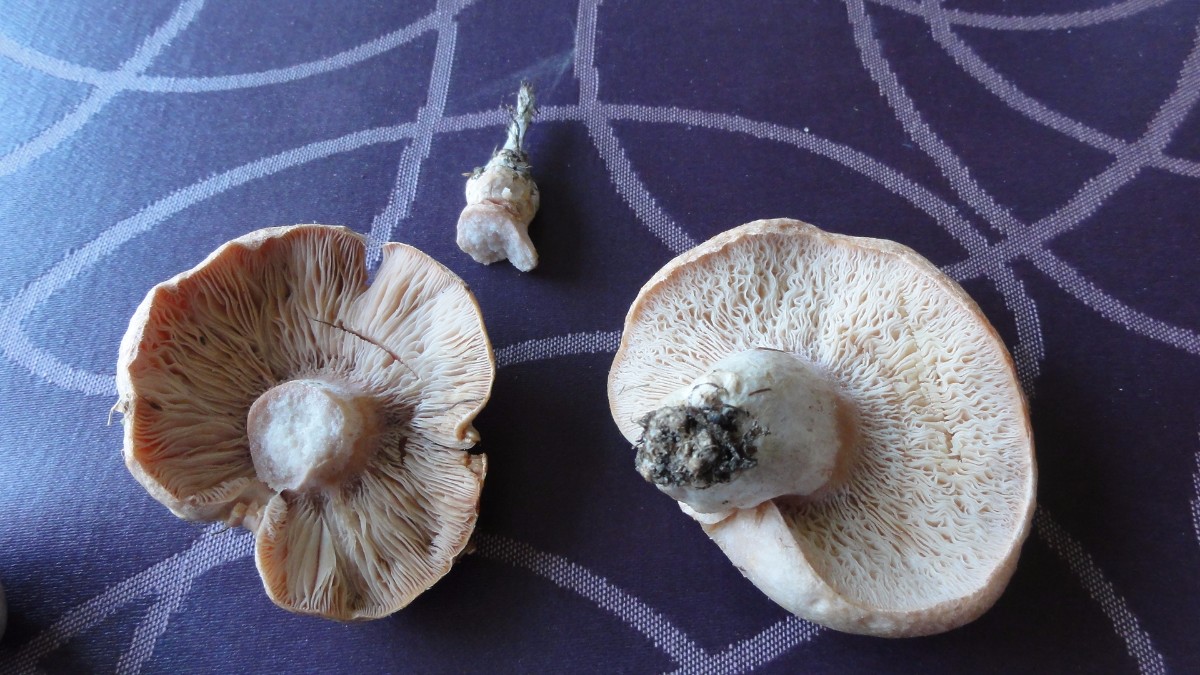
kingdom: Fungi
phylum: Ascomycota
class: Sordariomycetes
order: Hypocreales
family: Hypocreaceae
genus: Hypomyces
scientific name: Hypomyces
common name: snylteskorpe
